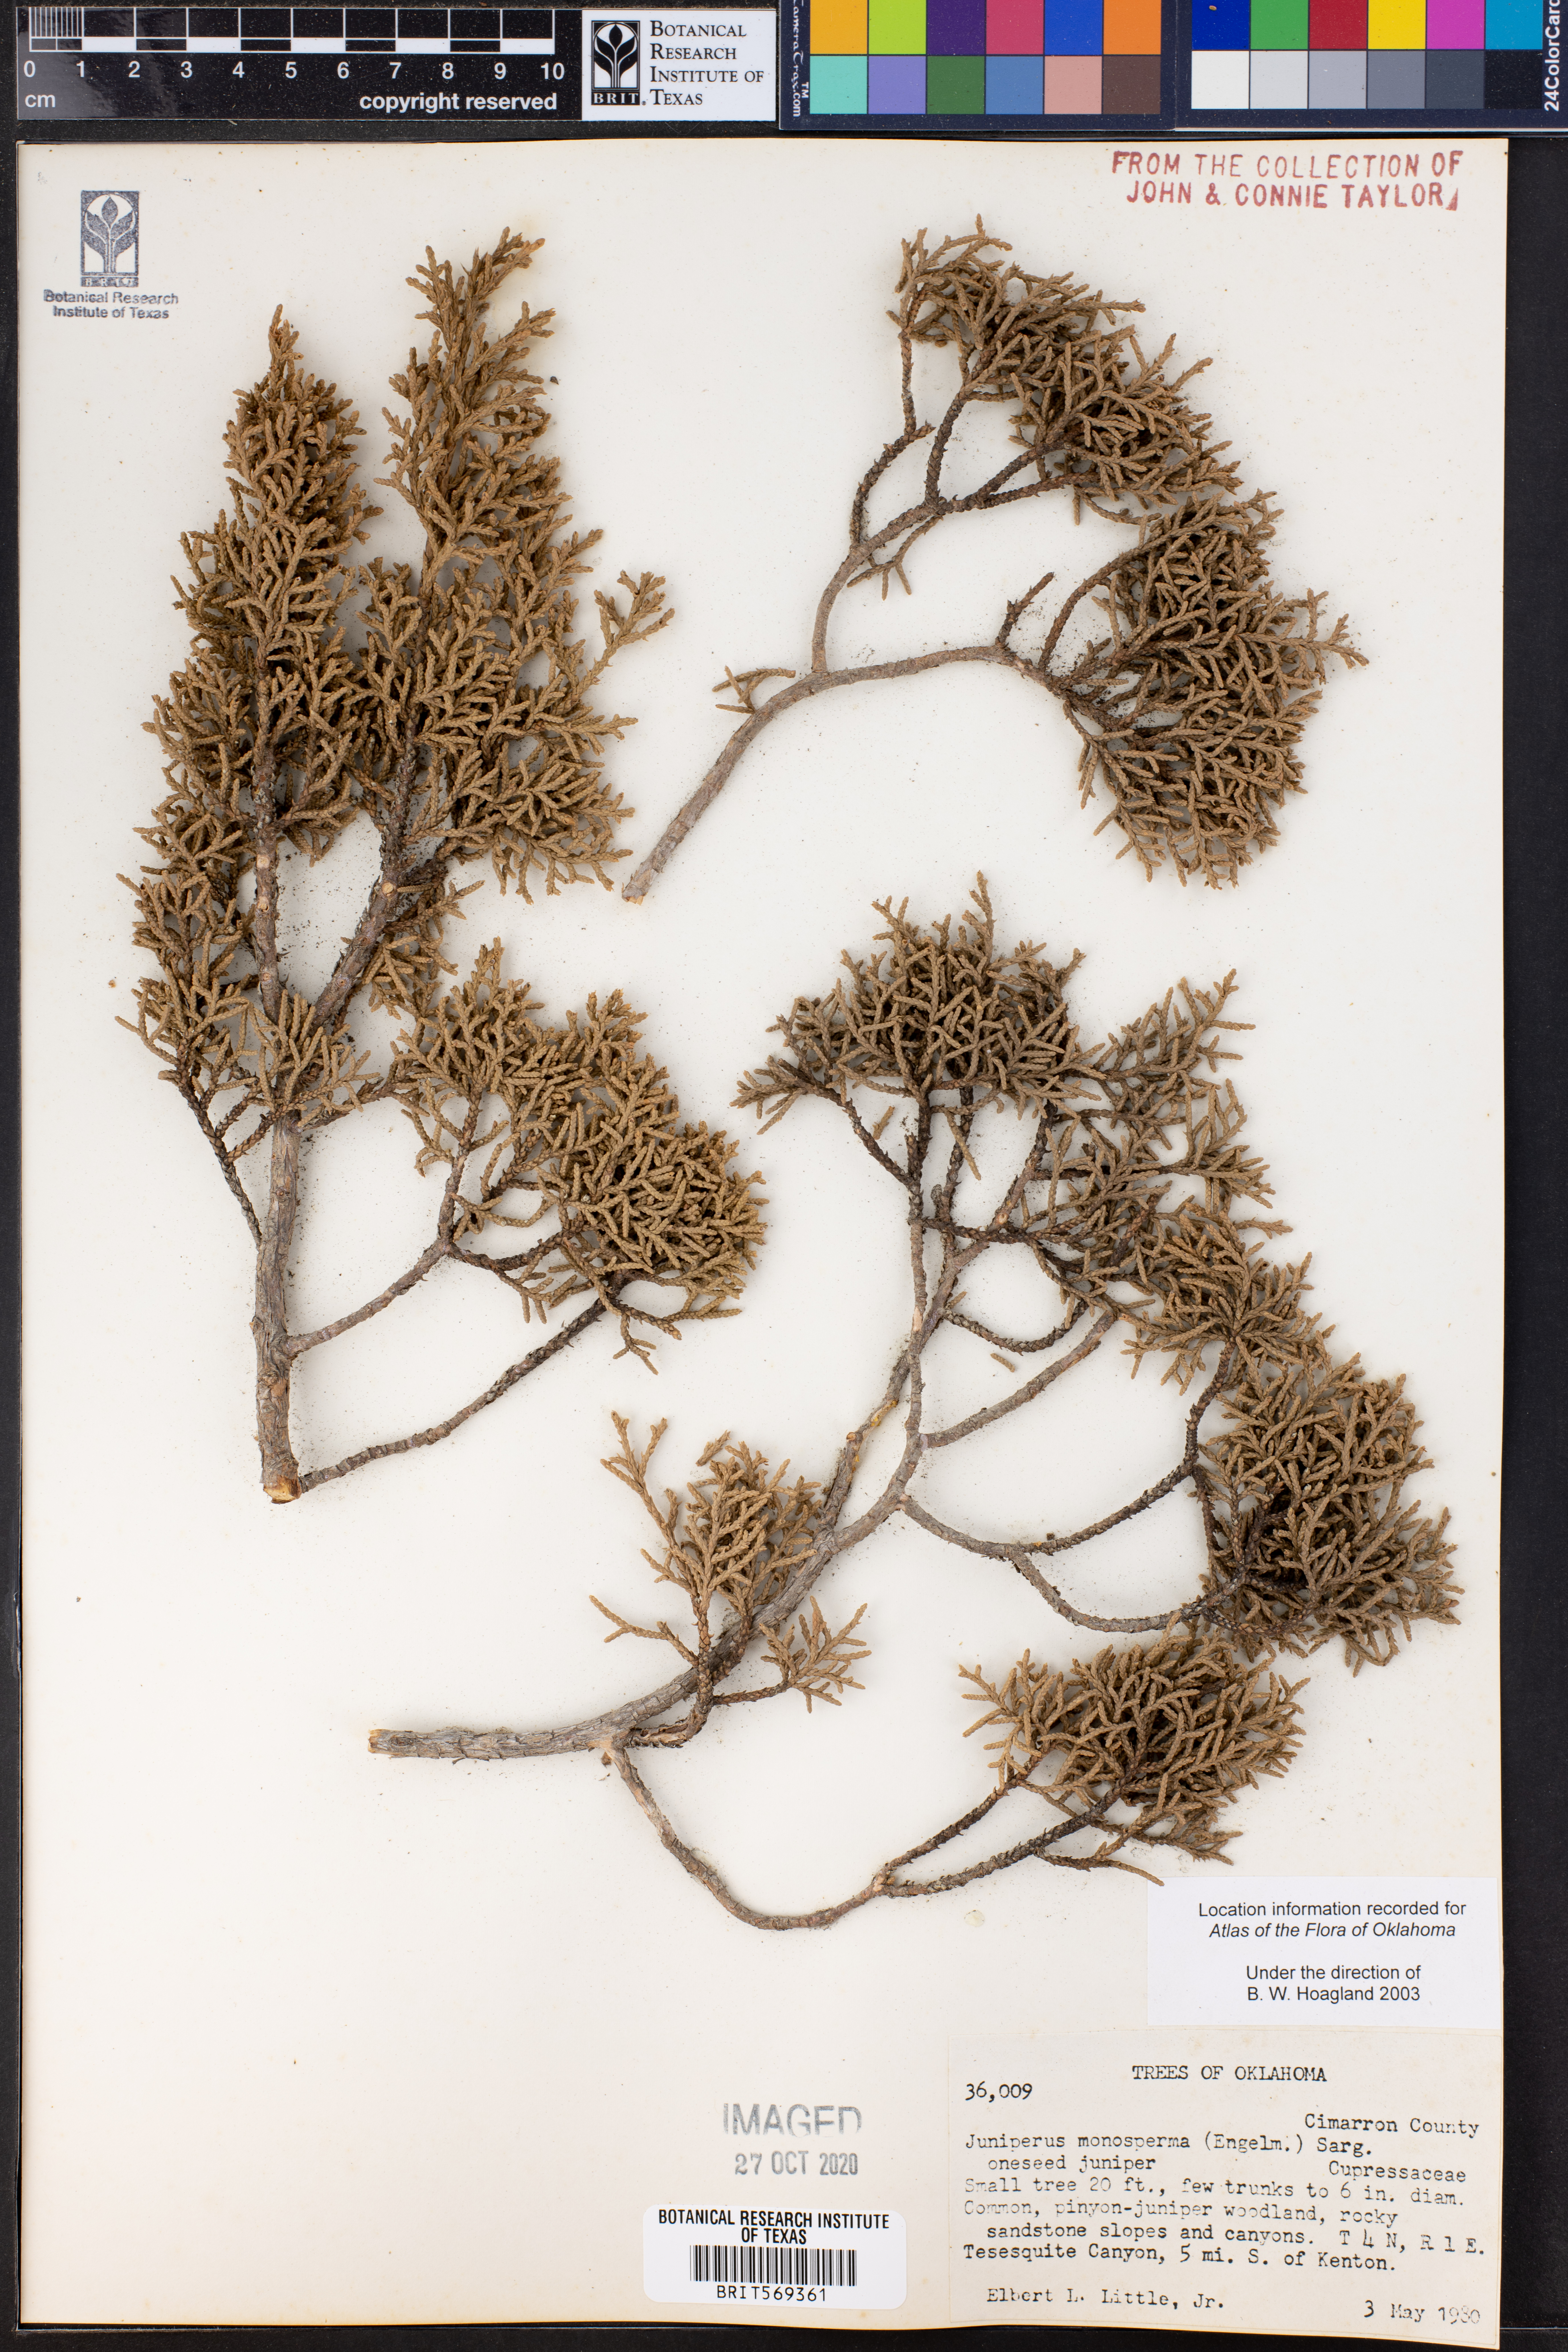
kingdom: Plantae
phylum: Tracheophyta
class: Pinopsida
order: Pinales
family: Cupressaceae
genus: Juniperus
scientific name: Juniperus monosperma
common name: One-seed juniper
